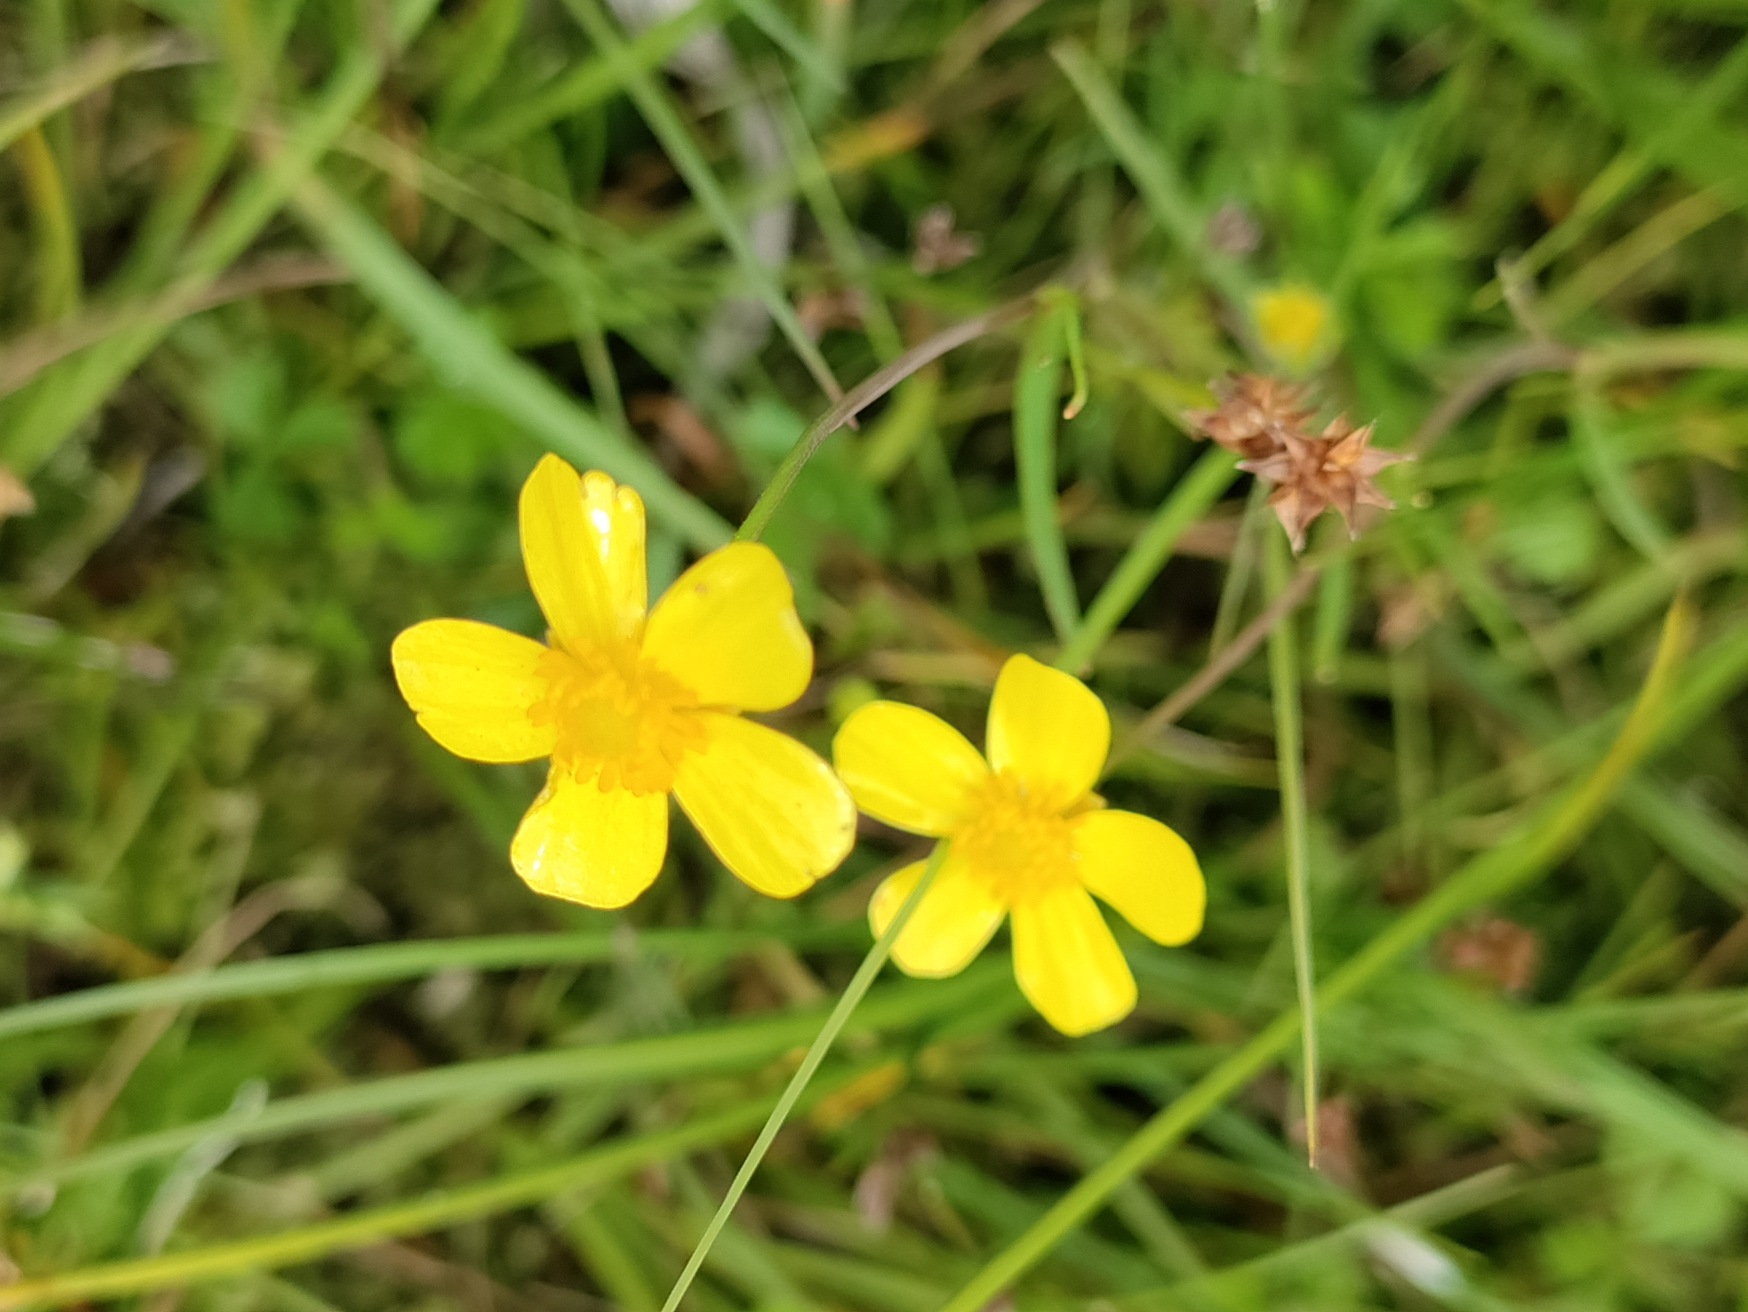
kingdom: Plantae
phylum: Tracheophyta
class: Magnoliopsida
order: Ranunculales
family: Ranunculaceae
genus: Ranunculus
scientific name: Ranunculus flammula
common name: Kær-ranunkel
